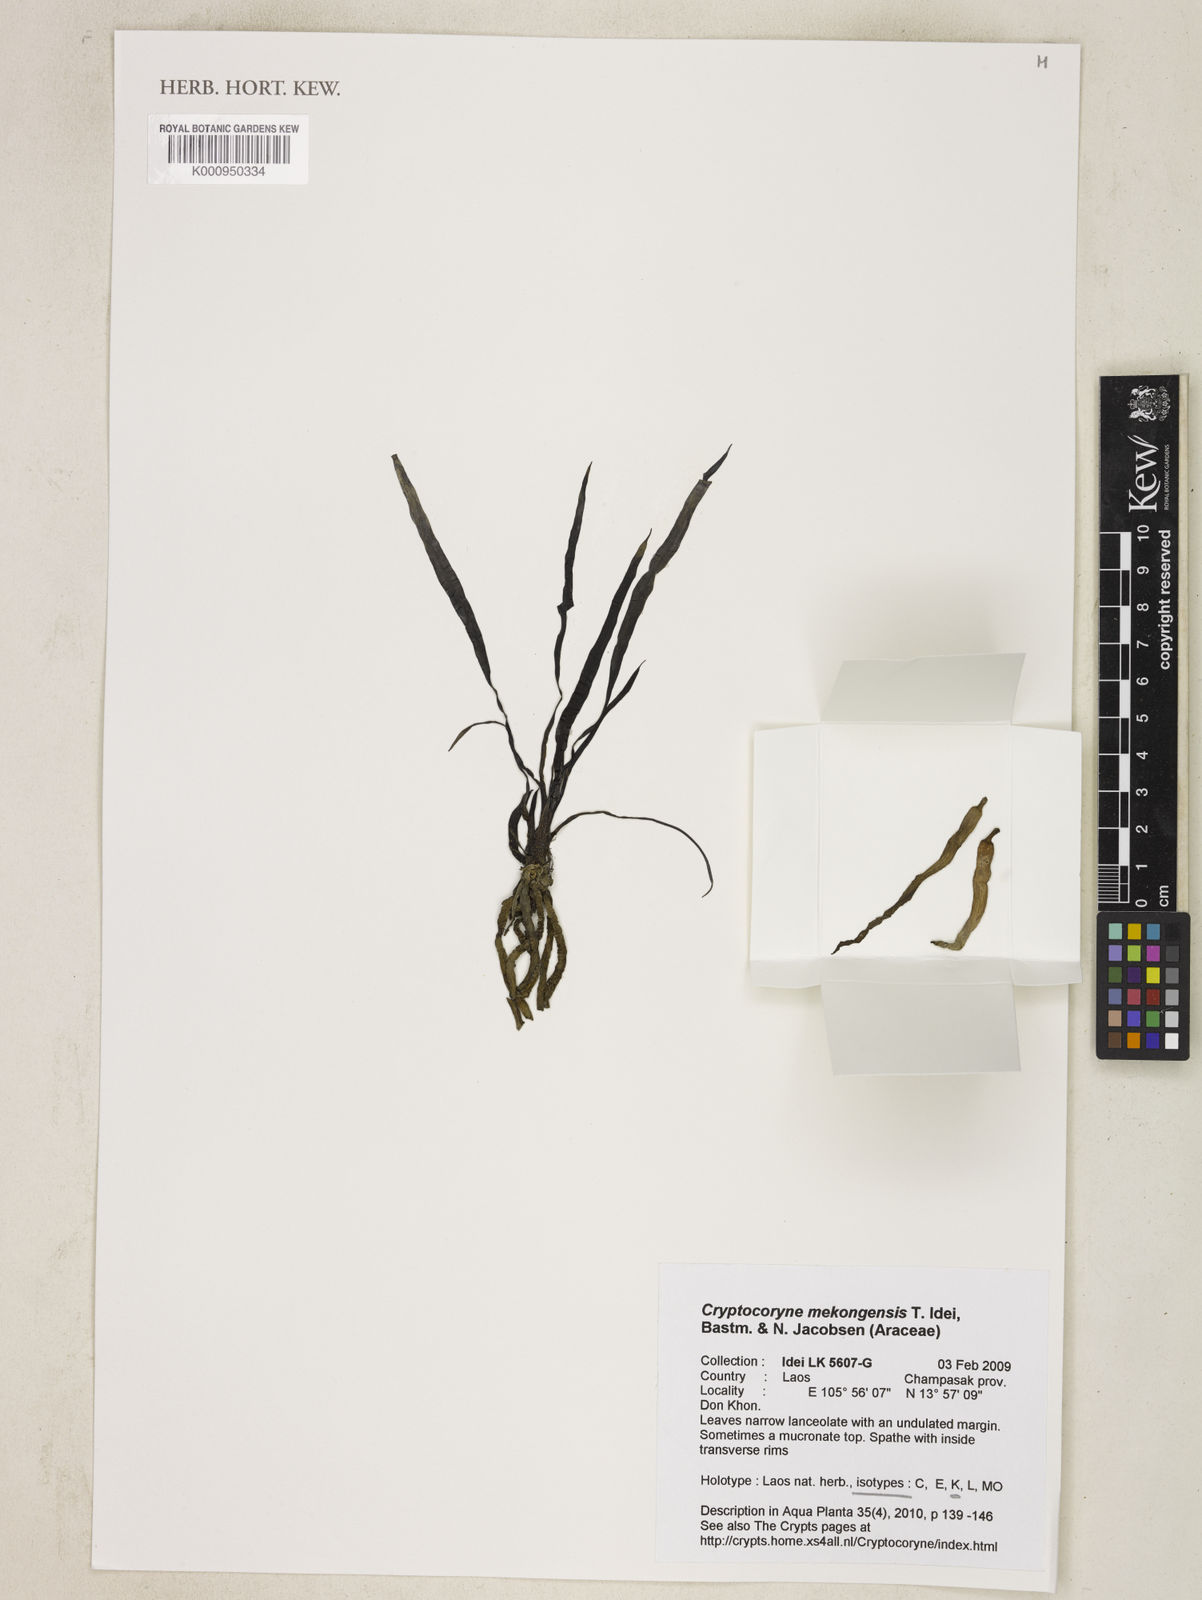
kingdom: Plantae
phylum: Tracheophyta
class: Liliopsida
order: Alismatales
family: Araceae
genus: Cryptocoryne
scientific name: Cryptocoryne mekongensis
